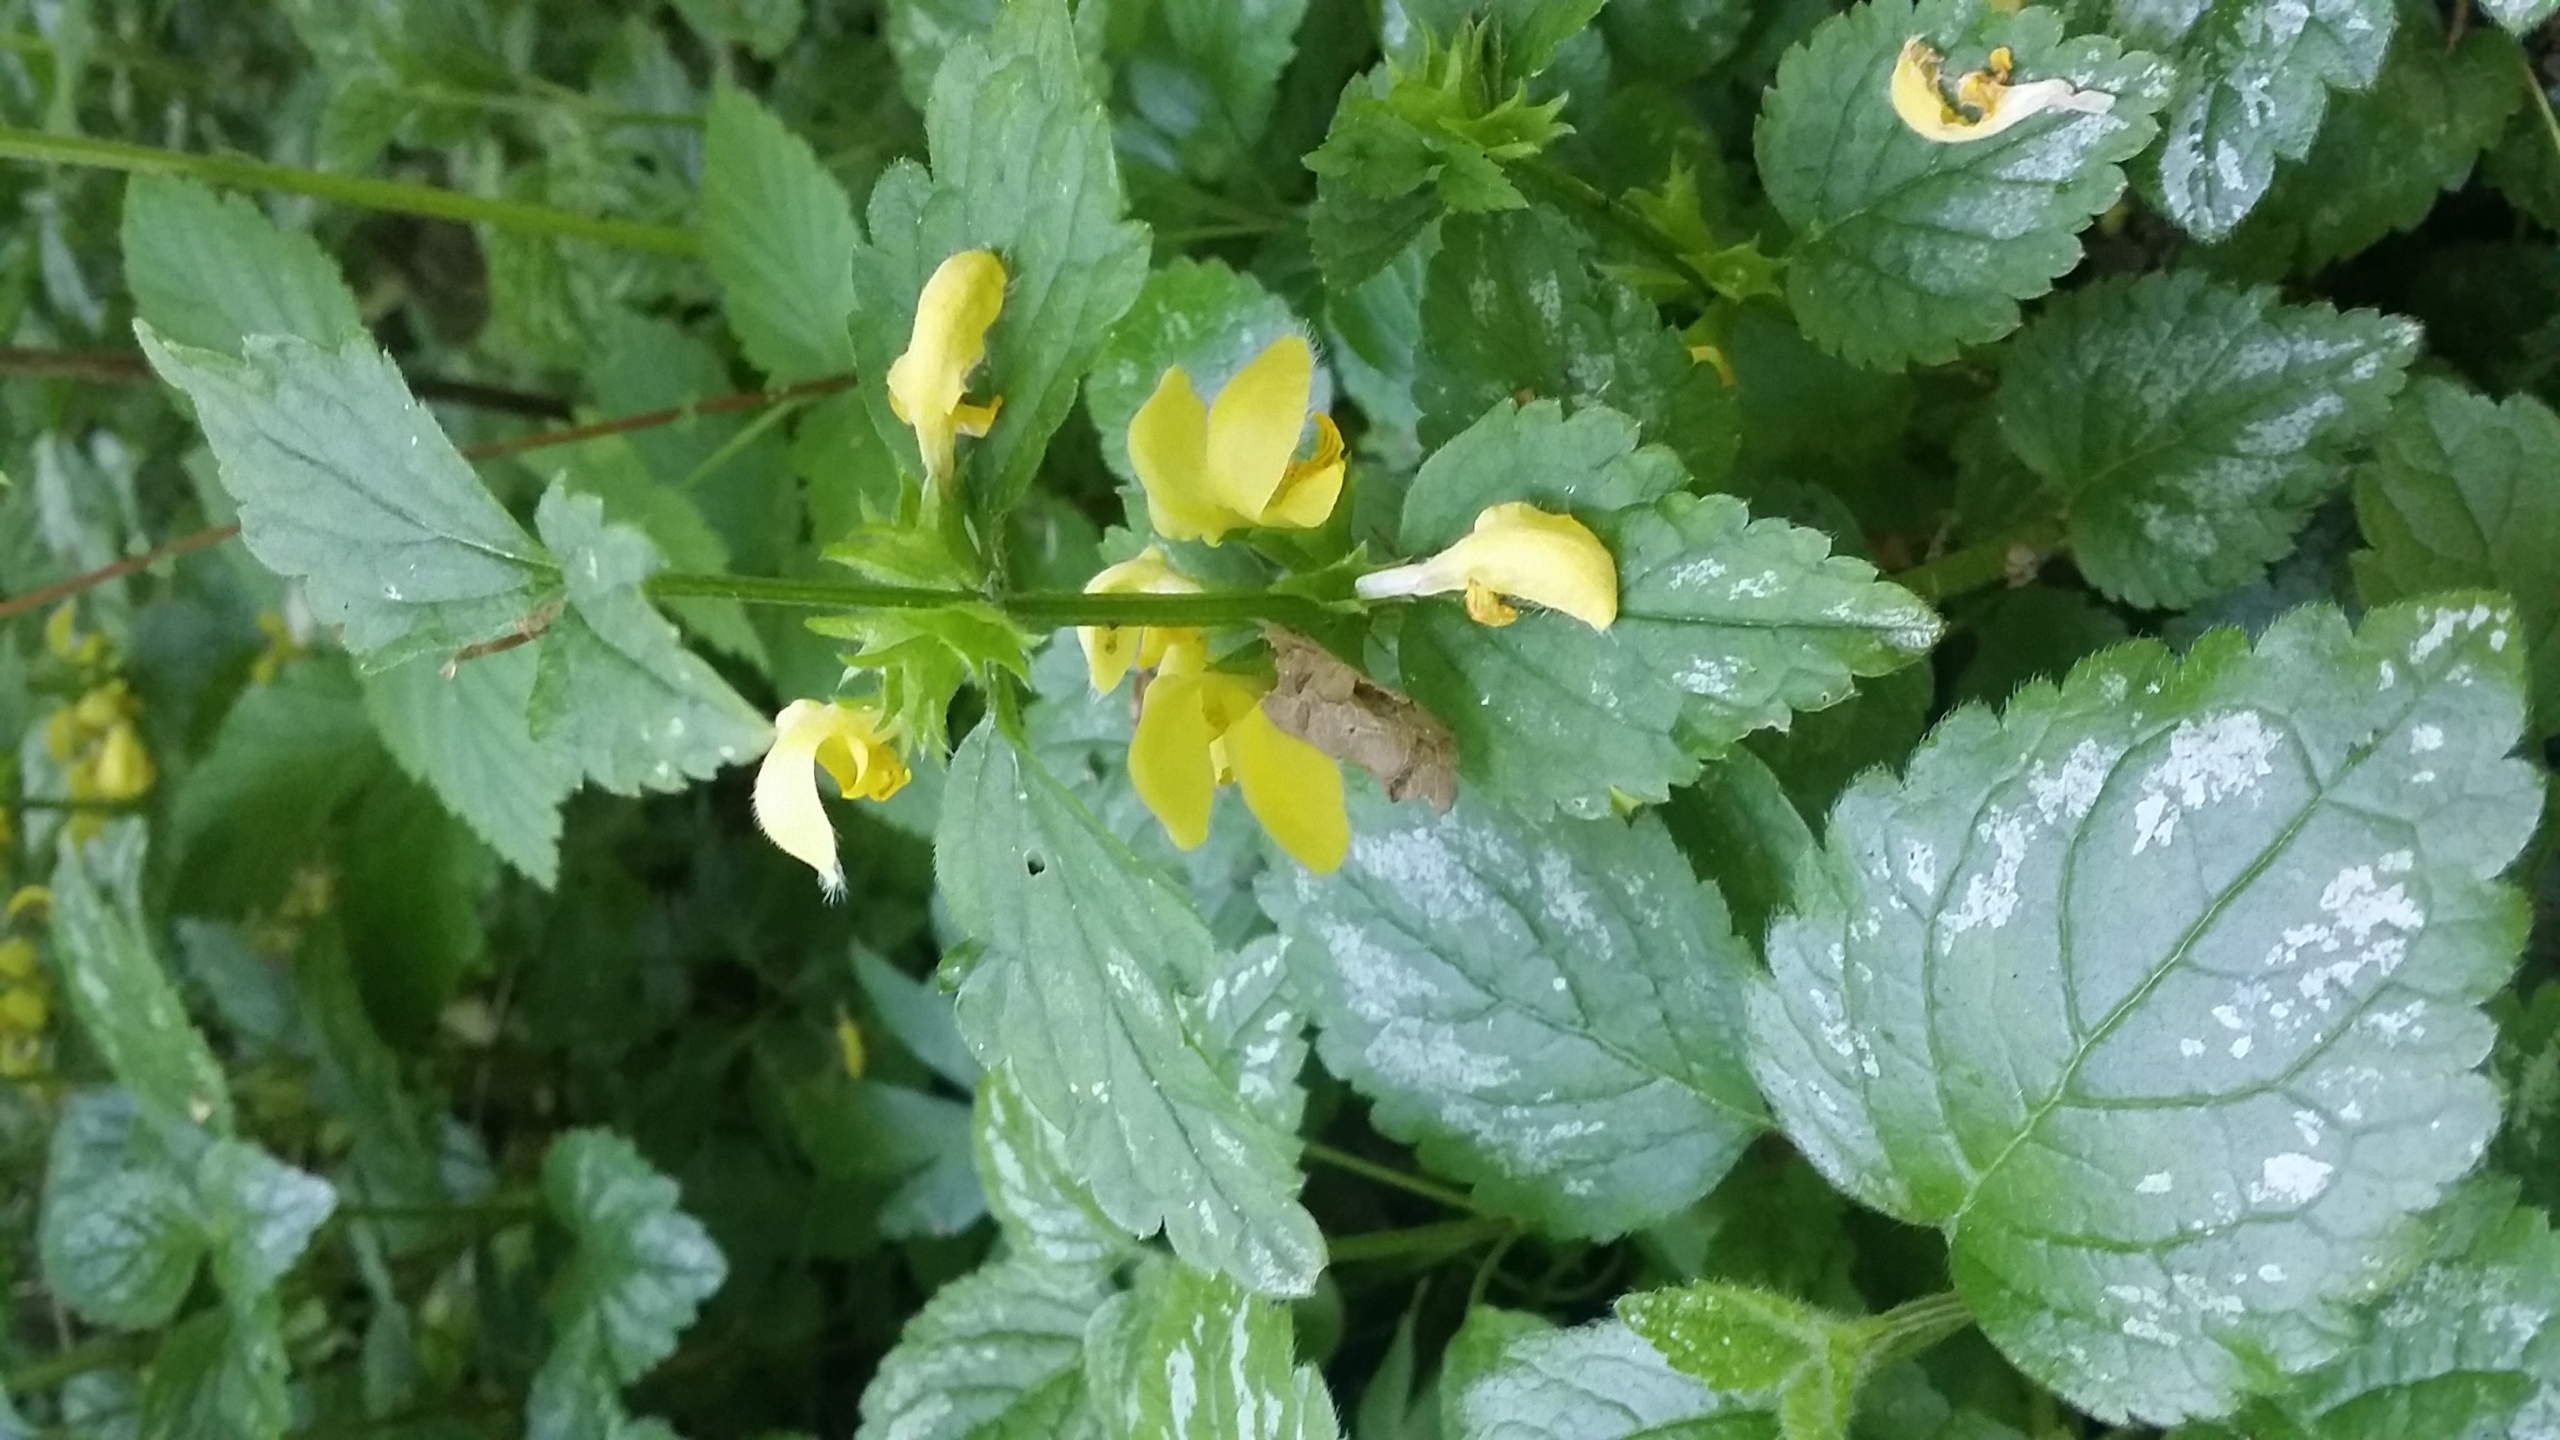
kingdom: Plantae
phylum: Tracheophyta
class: Magnoliopsida
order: Lamiales
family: Lamiaceae
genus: Lamium
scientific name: Lamium galeobdolon
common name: Have-guldnælde
